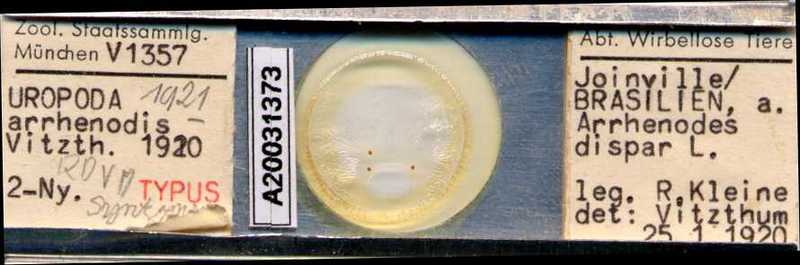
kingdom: Animalia
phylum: Arthropoda
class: Arachnida
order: Mesostigmata
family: Uropodidae
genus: Uropoda
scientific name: Uropoda
